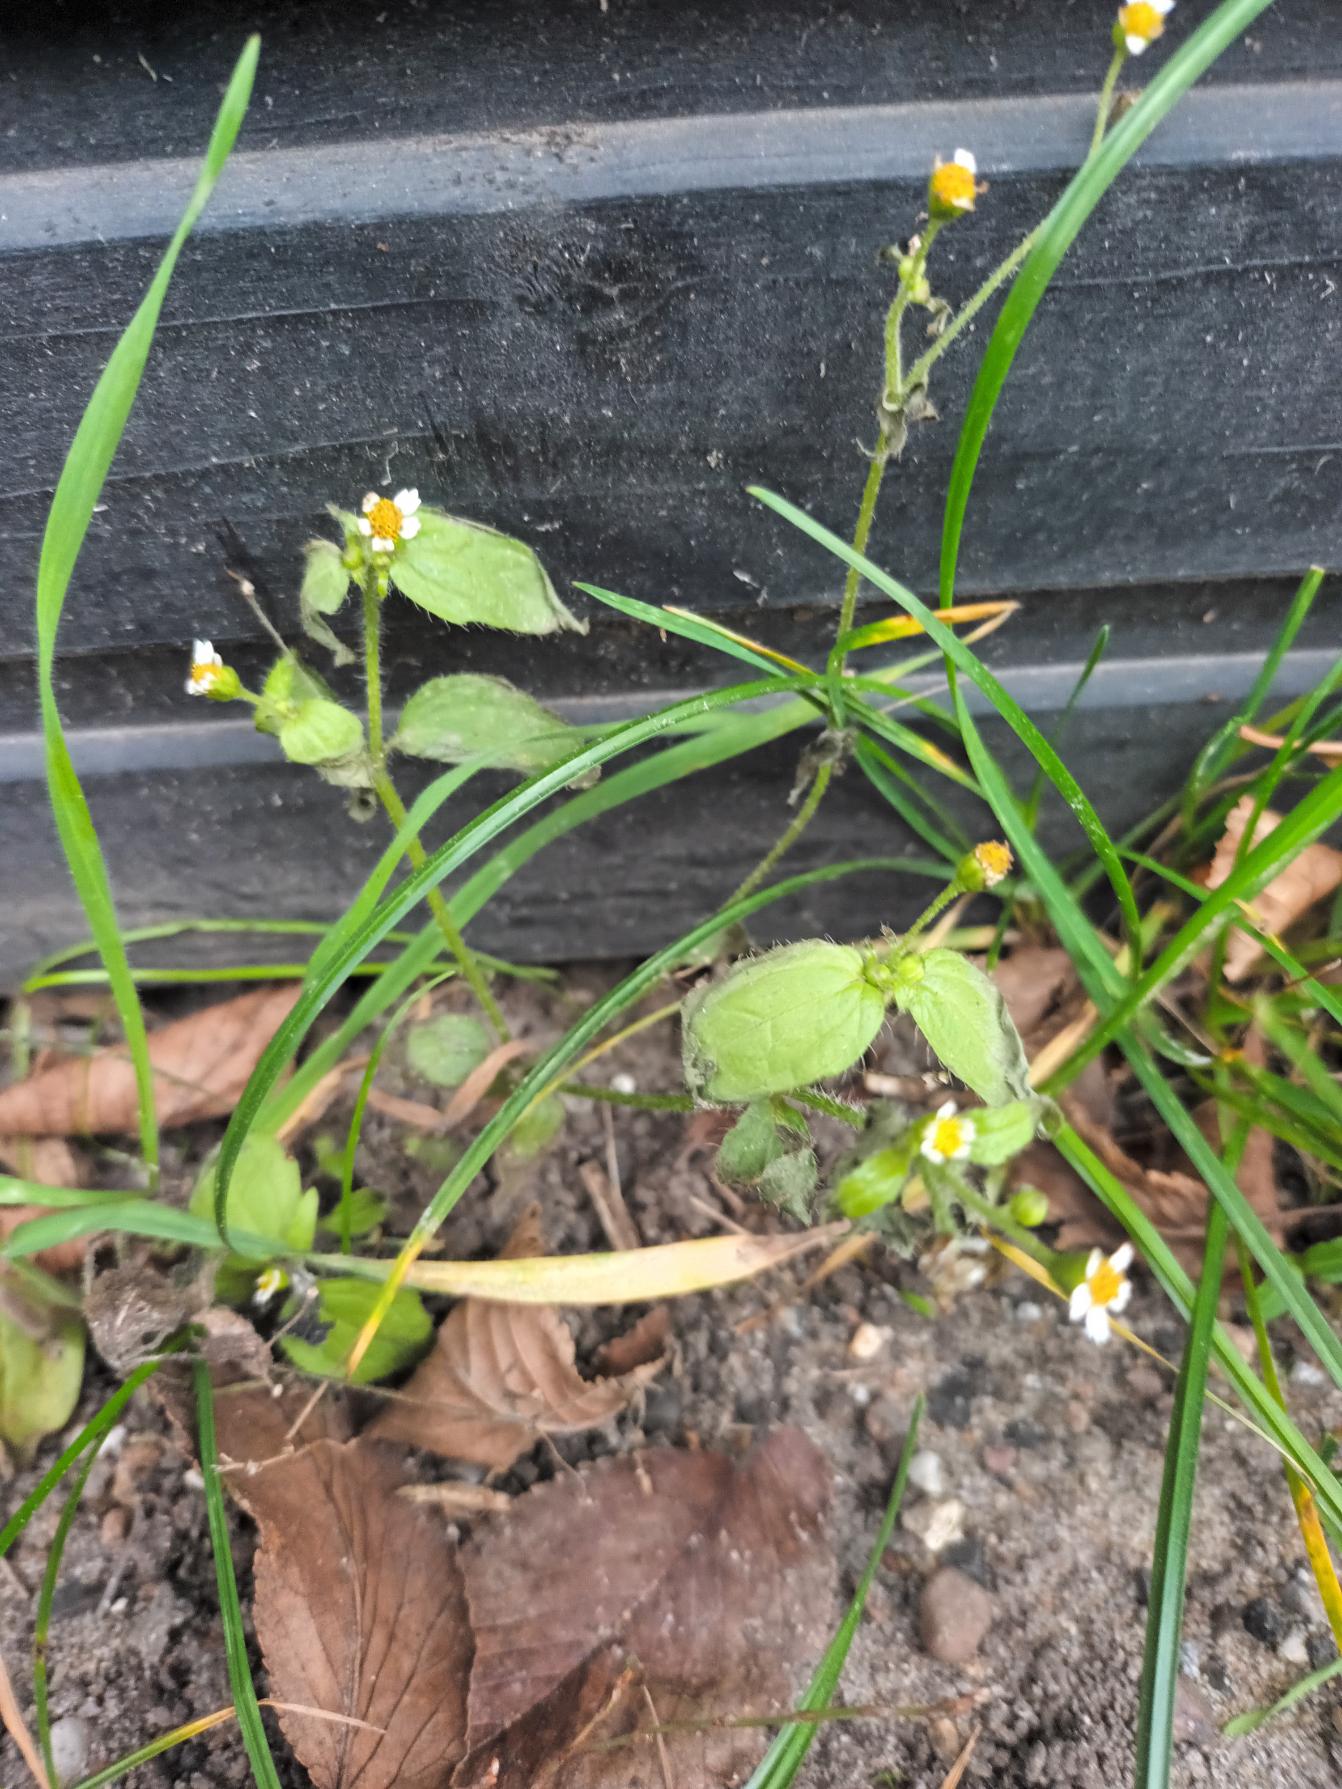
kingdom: Plantae
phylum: Tracheophyta
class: Magnoliopsida
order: Asterales
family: Asteraceae
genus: Galinsoga
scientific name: Galinsoga quadriradiata
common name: Kirtel-kortstråle
